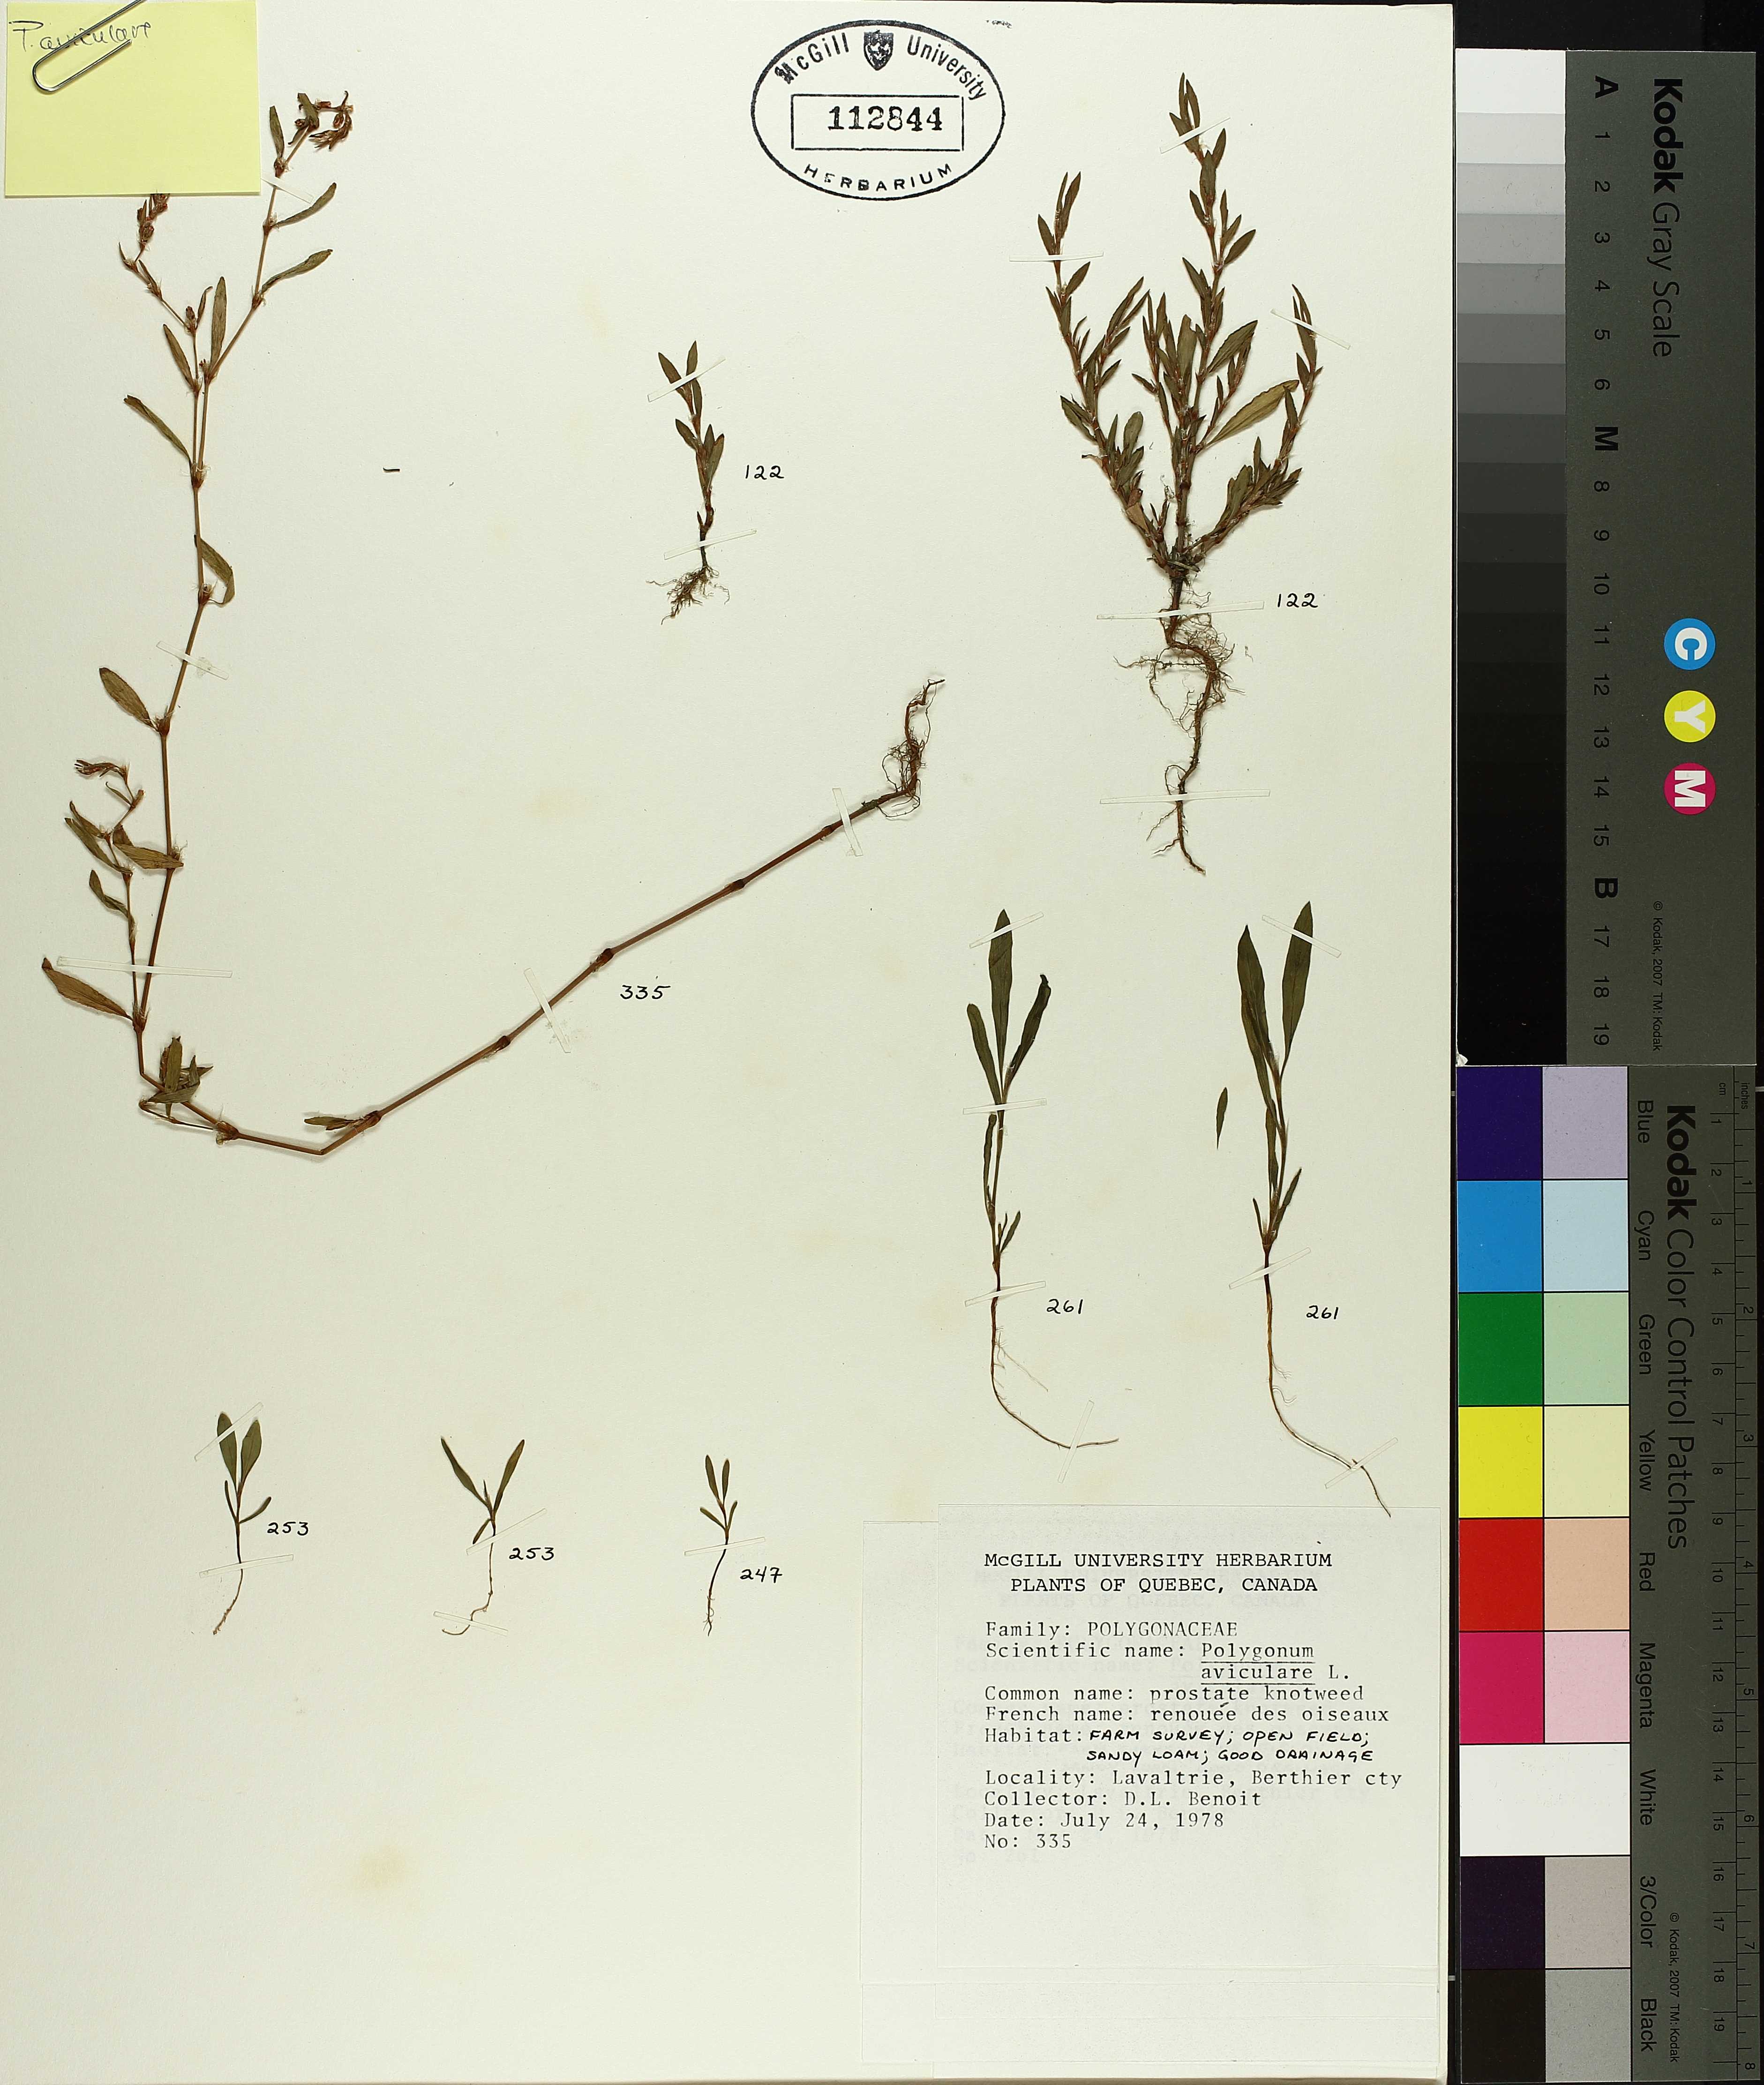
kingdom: Plantae
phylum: Tracheophyta
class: Magnoliopsida
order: Caryophyllales
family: Polygonaceae
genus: Polygonum
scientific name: Polygonum aviculare
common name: Prostrate knotweed
